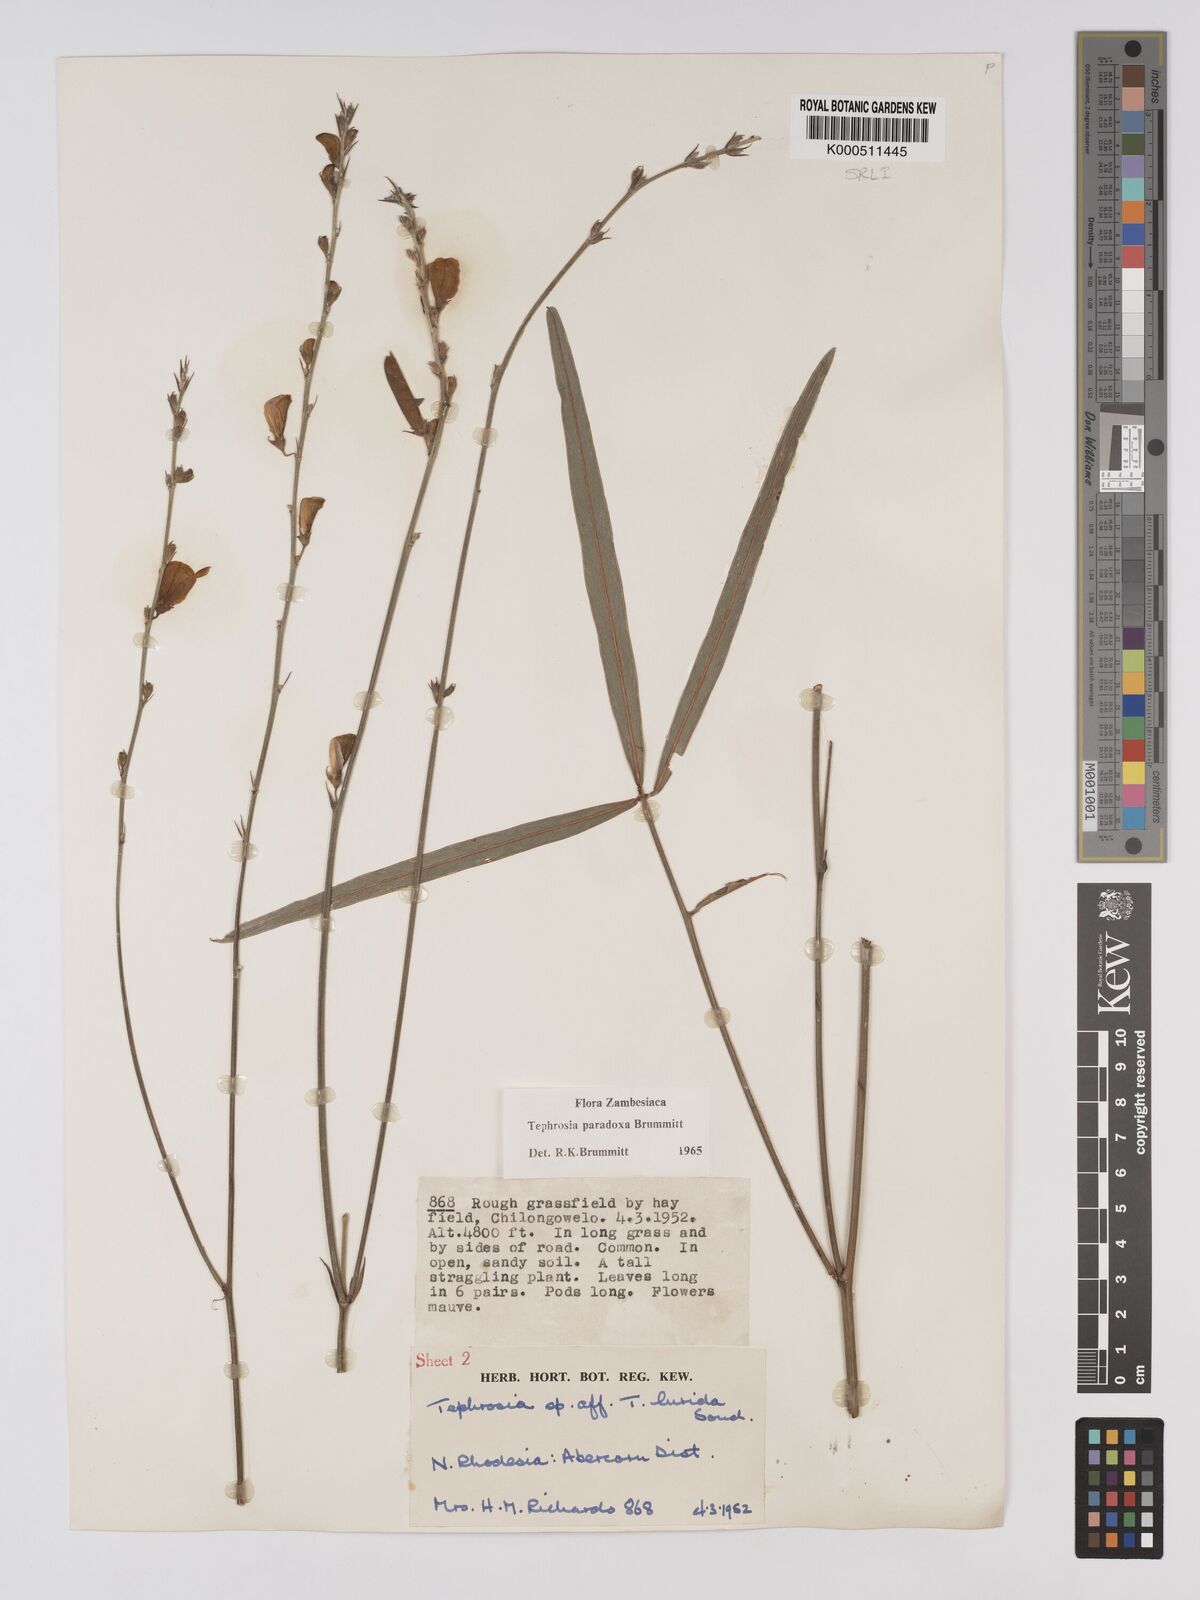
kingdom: Plantae
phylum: Tracheophyta
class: Magnoliopsida
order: Fabales
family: Fabaceae
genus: Tephrosia
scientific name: Tephrosia paradoxa
